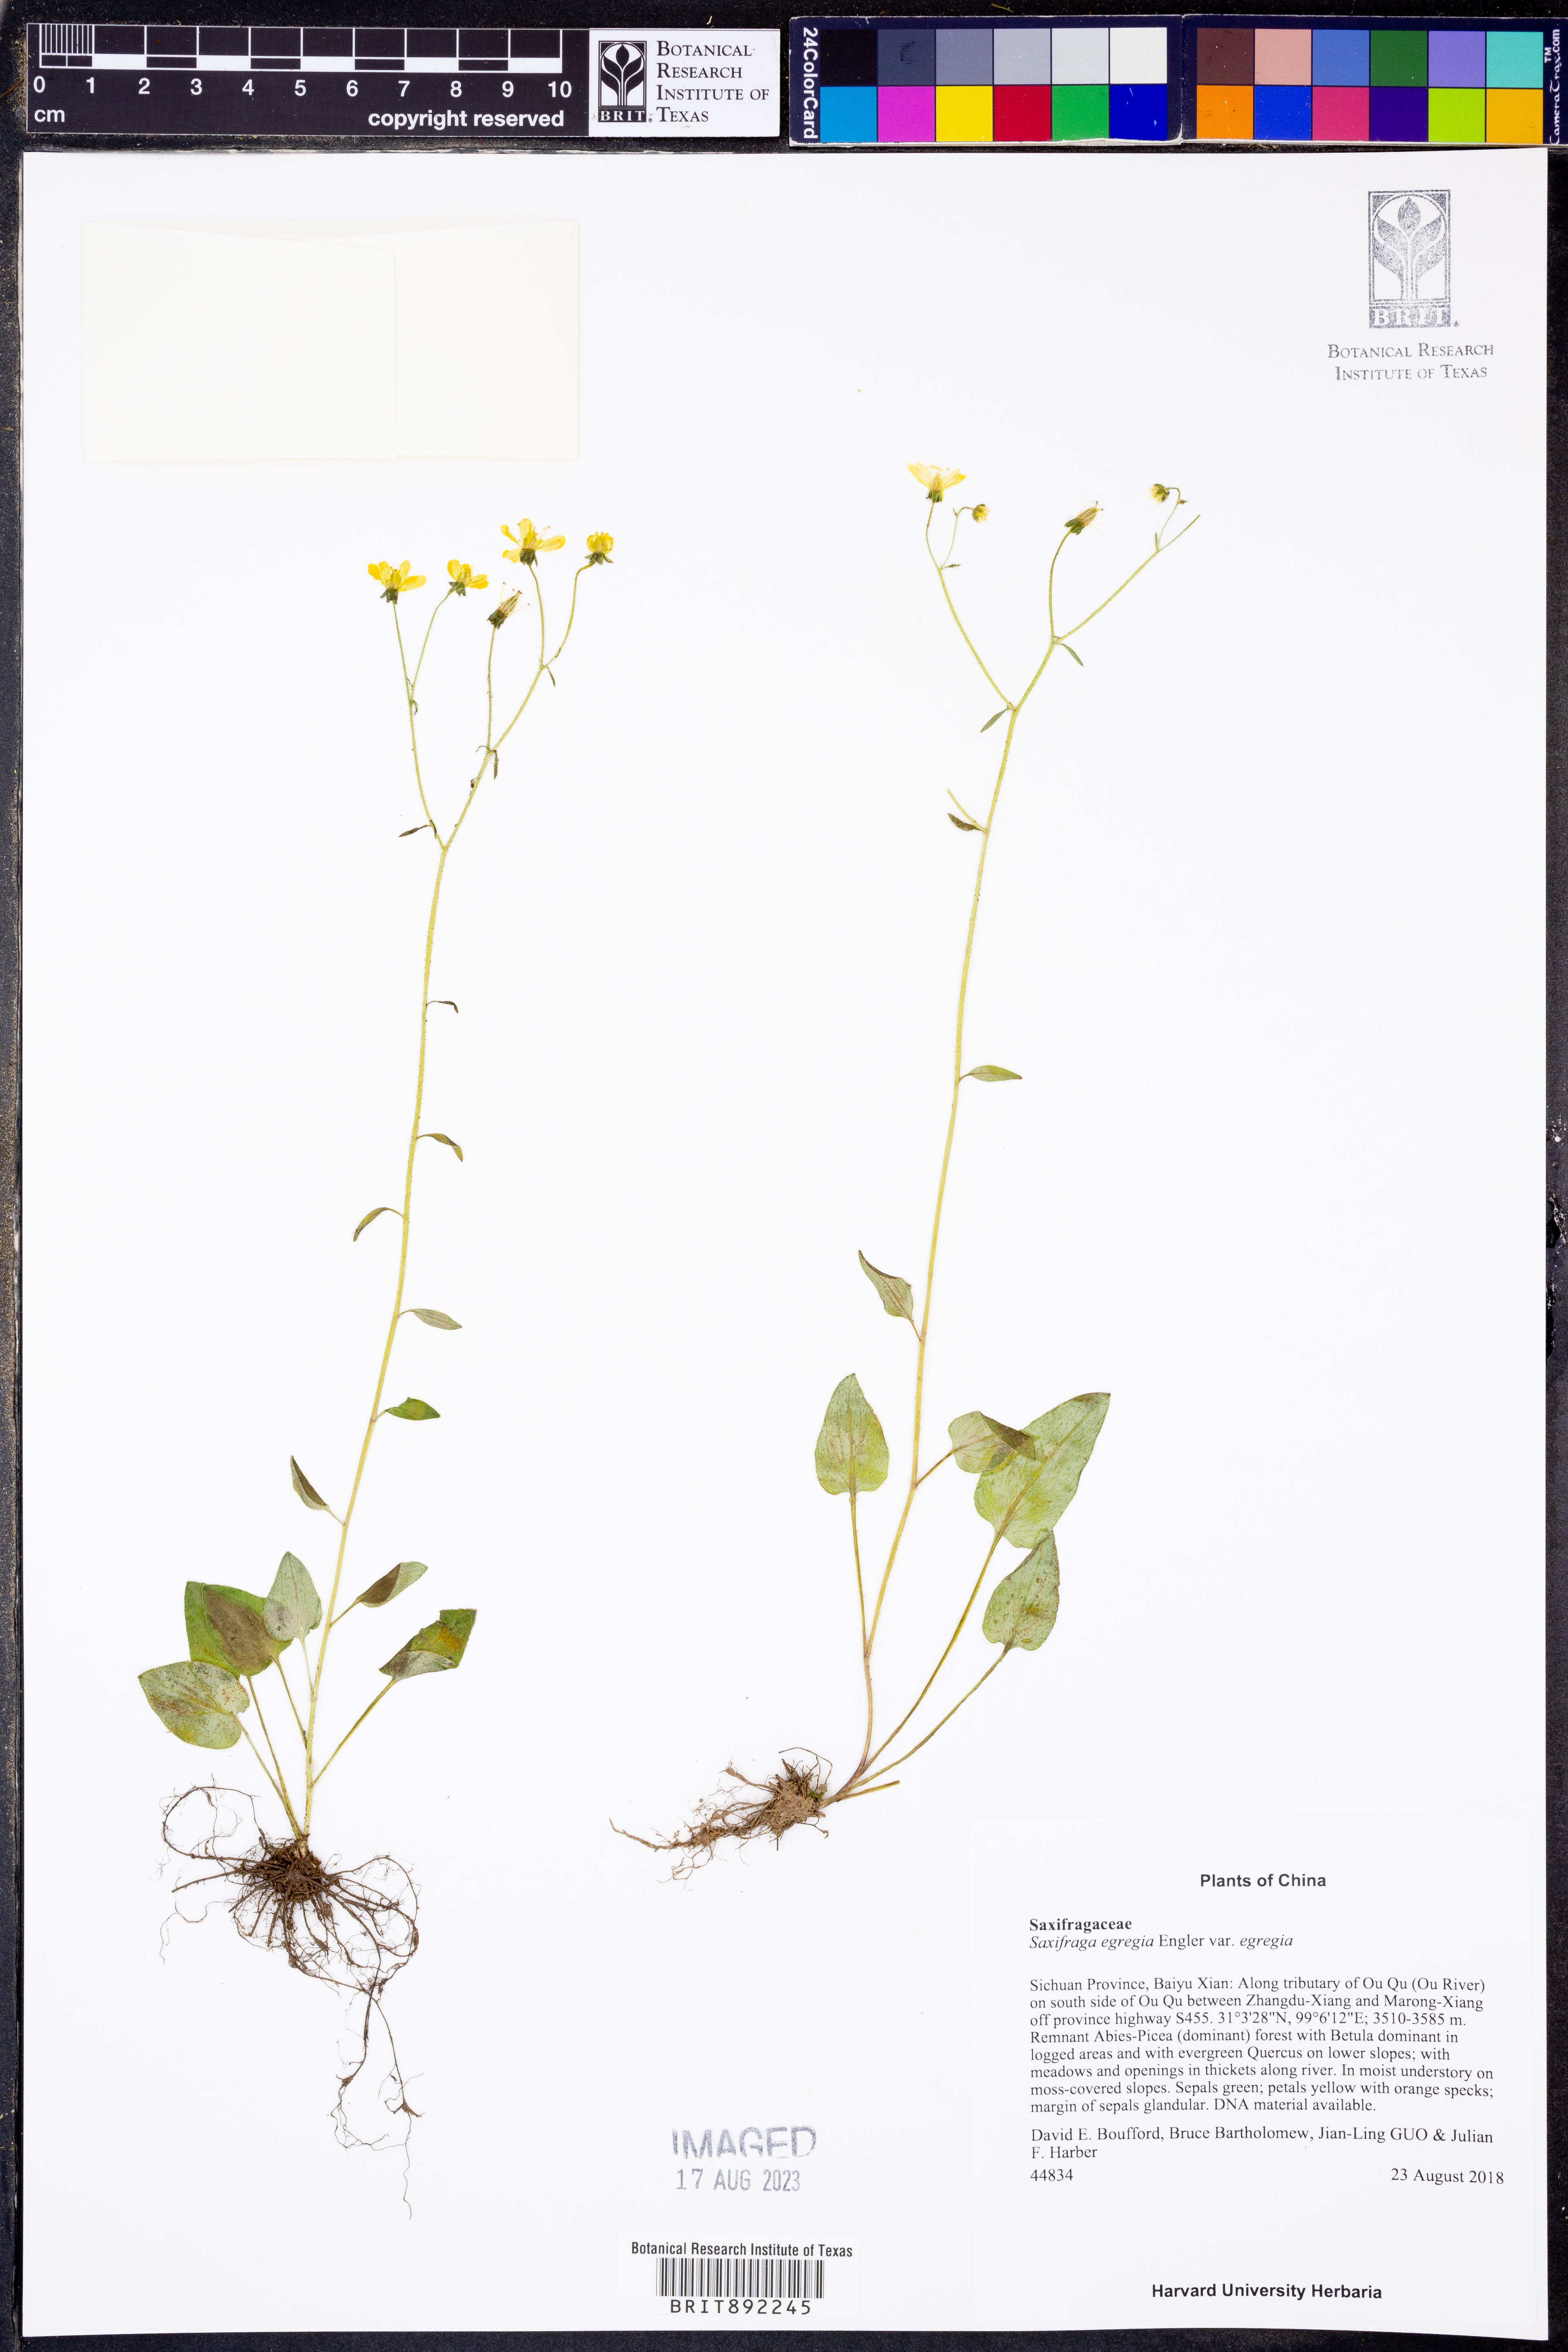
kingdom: Plantae
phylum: Tracheophyta
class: Magnoliopsida
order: Saxifragales
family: Saxifragaceae
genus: Saxifraga
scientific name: Saxifraga egregia
